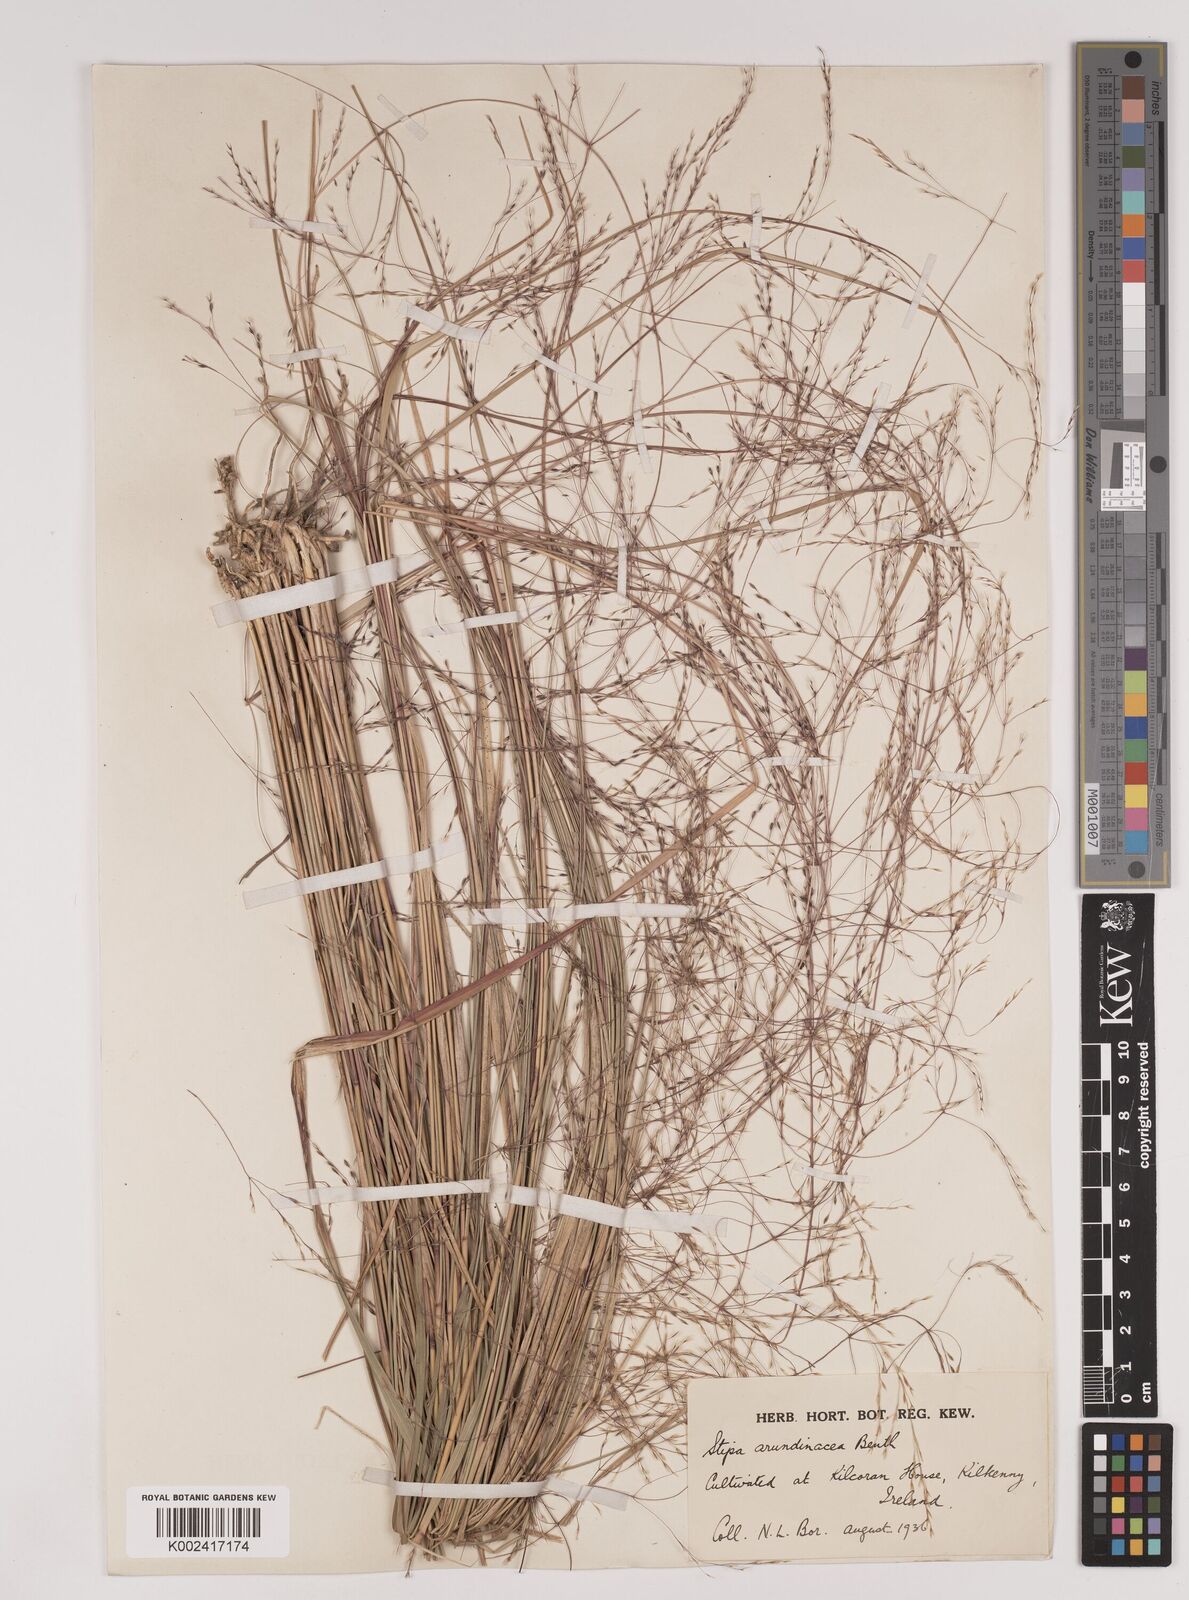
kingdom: Plantae
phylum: Tracheophyta
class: Liliopsida
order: Poales
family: Poaceae
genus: Stipa
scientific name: Stipa
